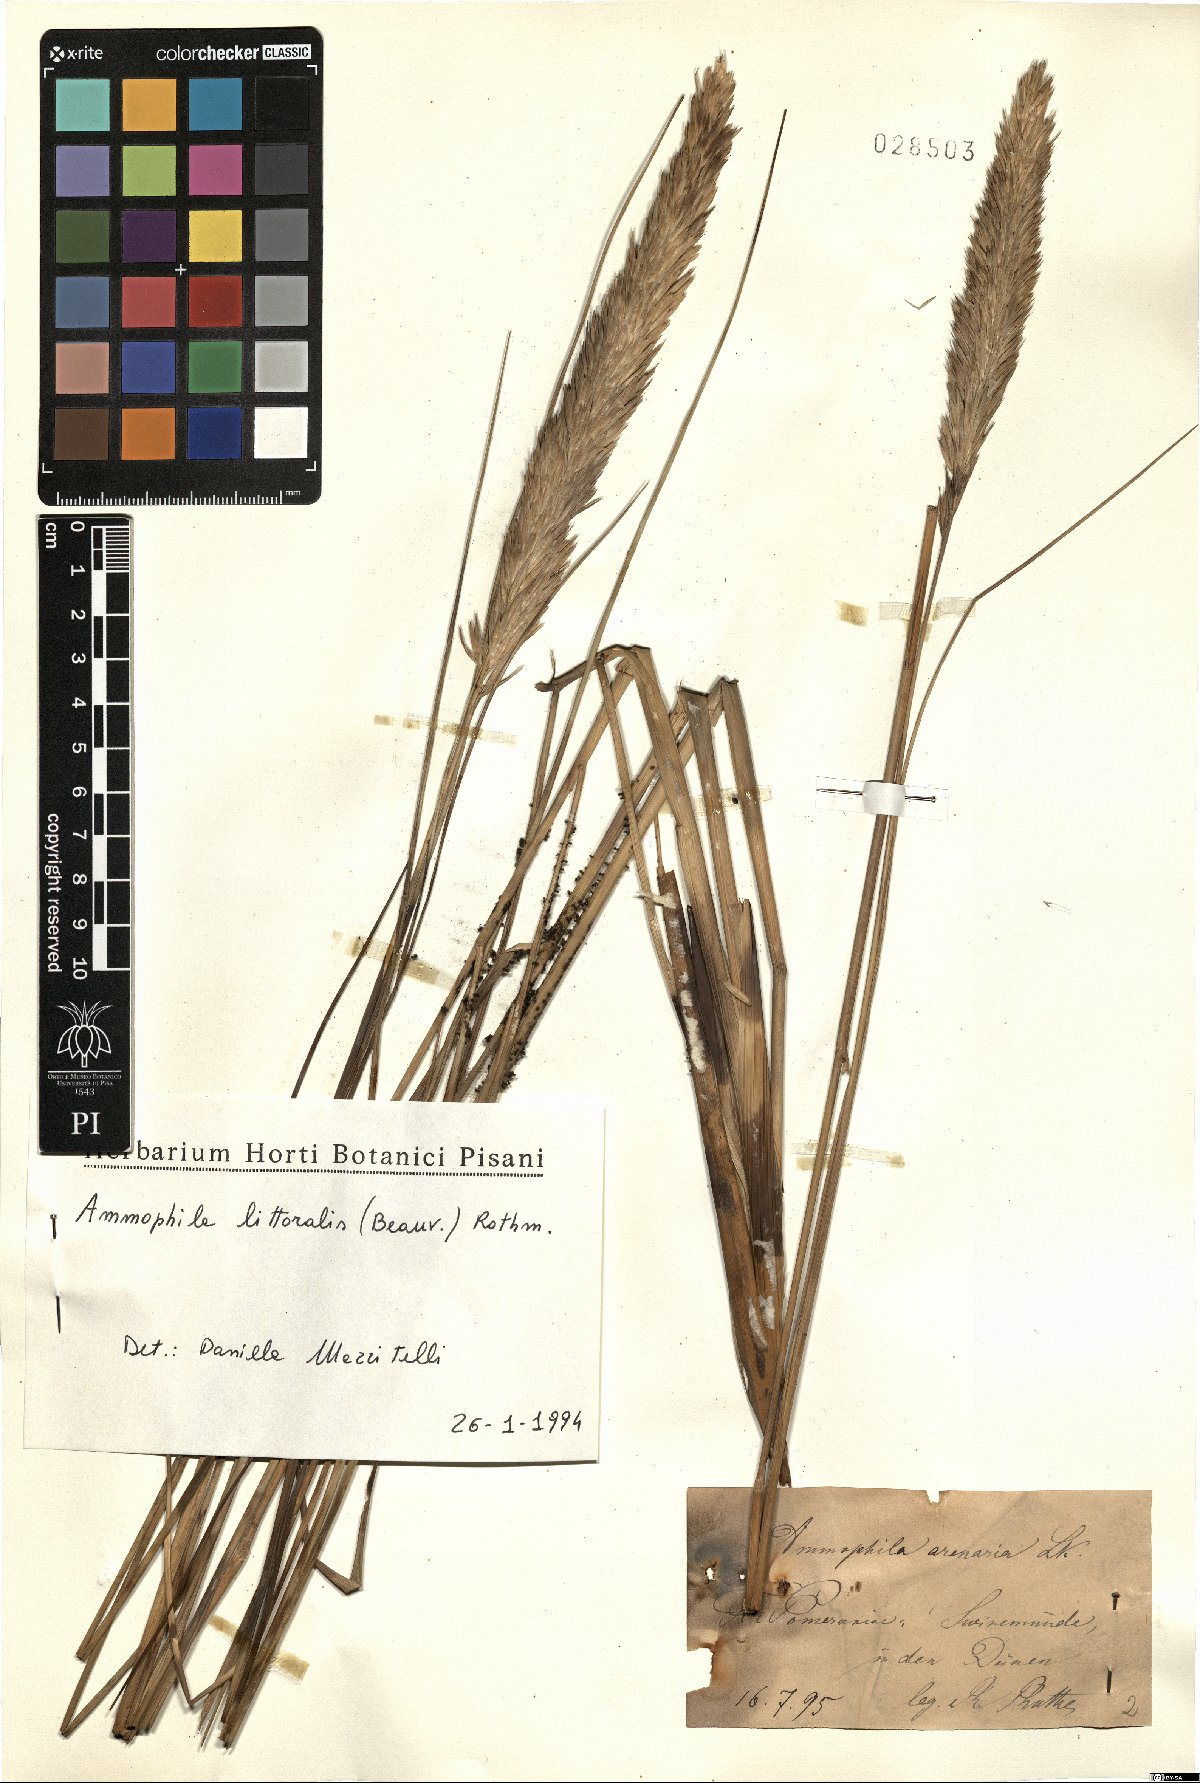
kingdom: Plantae
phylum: Tracheophyta
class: Liliopsida
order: Poales
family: Poaceae
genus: Calamagrostis
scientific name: Calamagrostis arenaria
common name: European beachgrass
